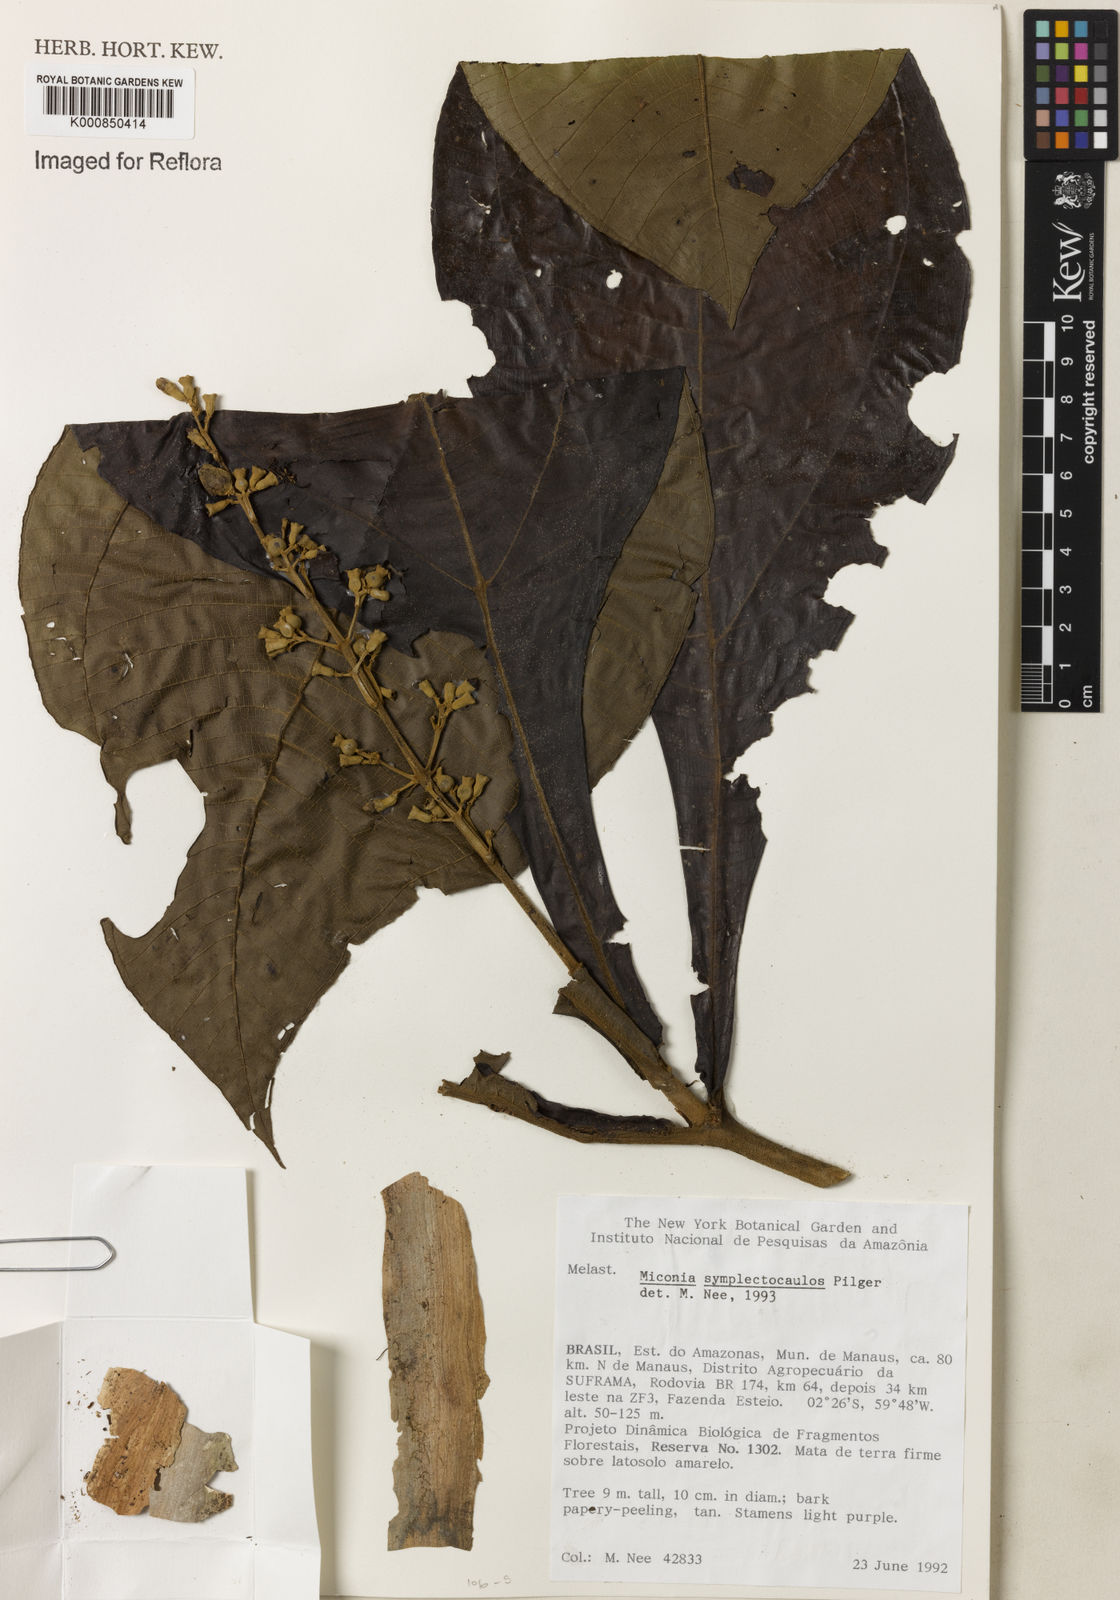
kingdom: Plantae
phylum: Tracheophyta
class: Magnoliopsida
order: Myrtales
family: Melastomataceae
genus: Miconia
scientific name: Miconia symplectocaulos
